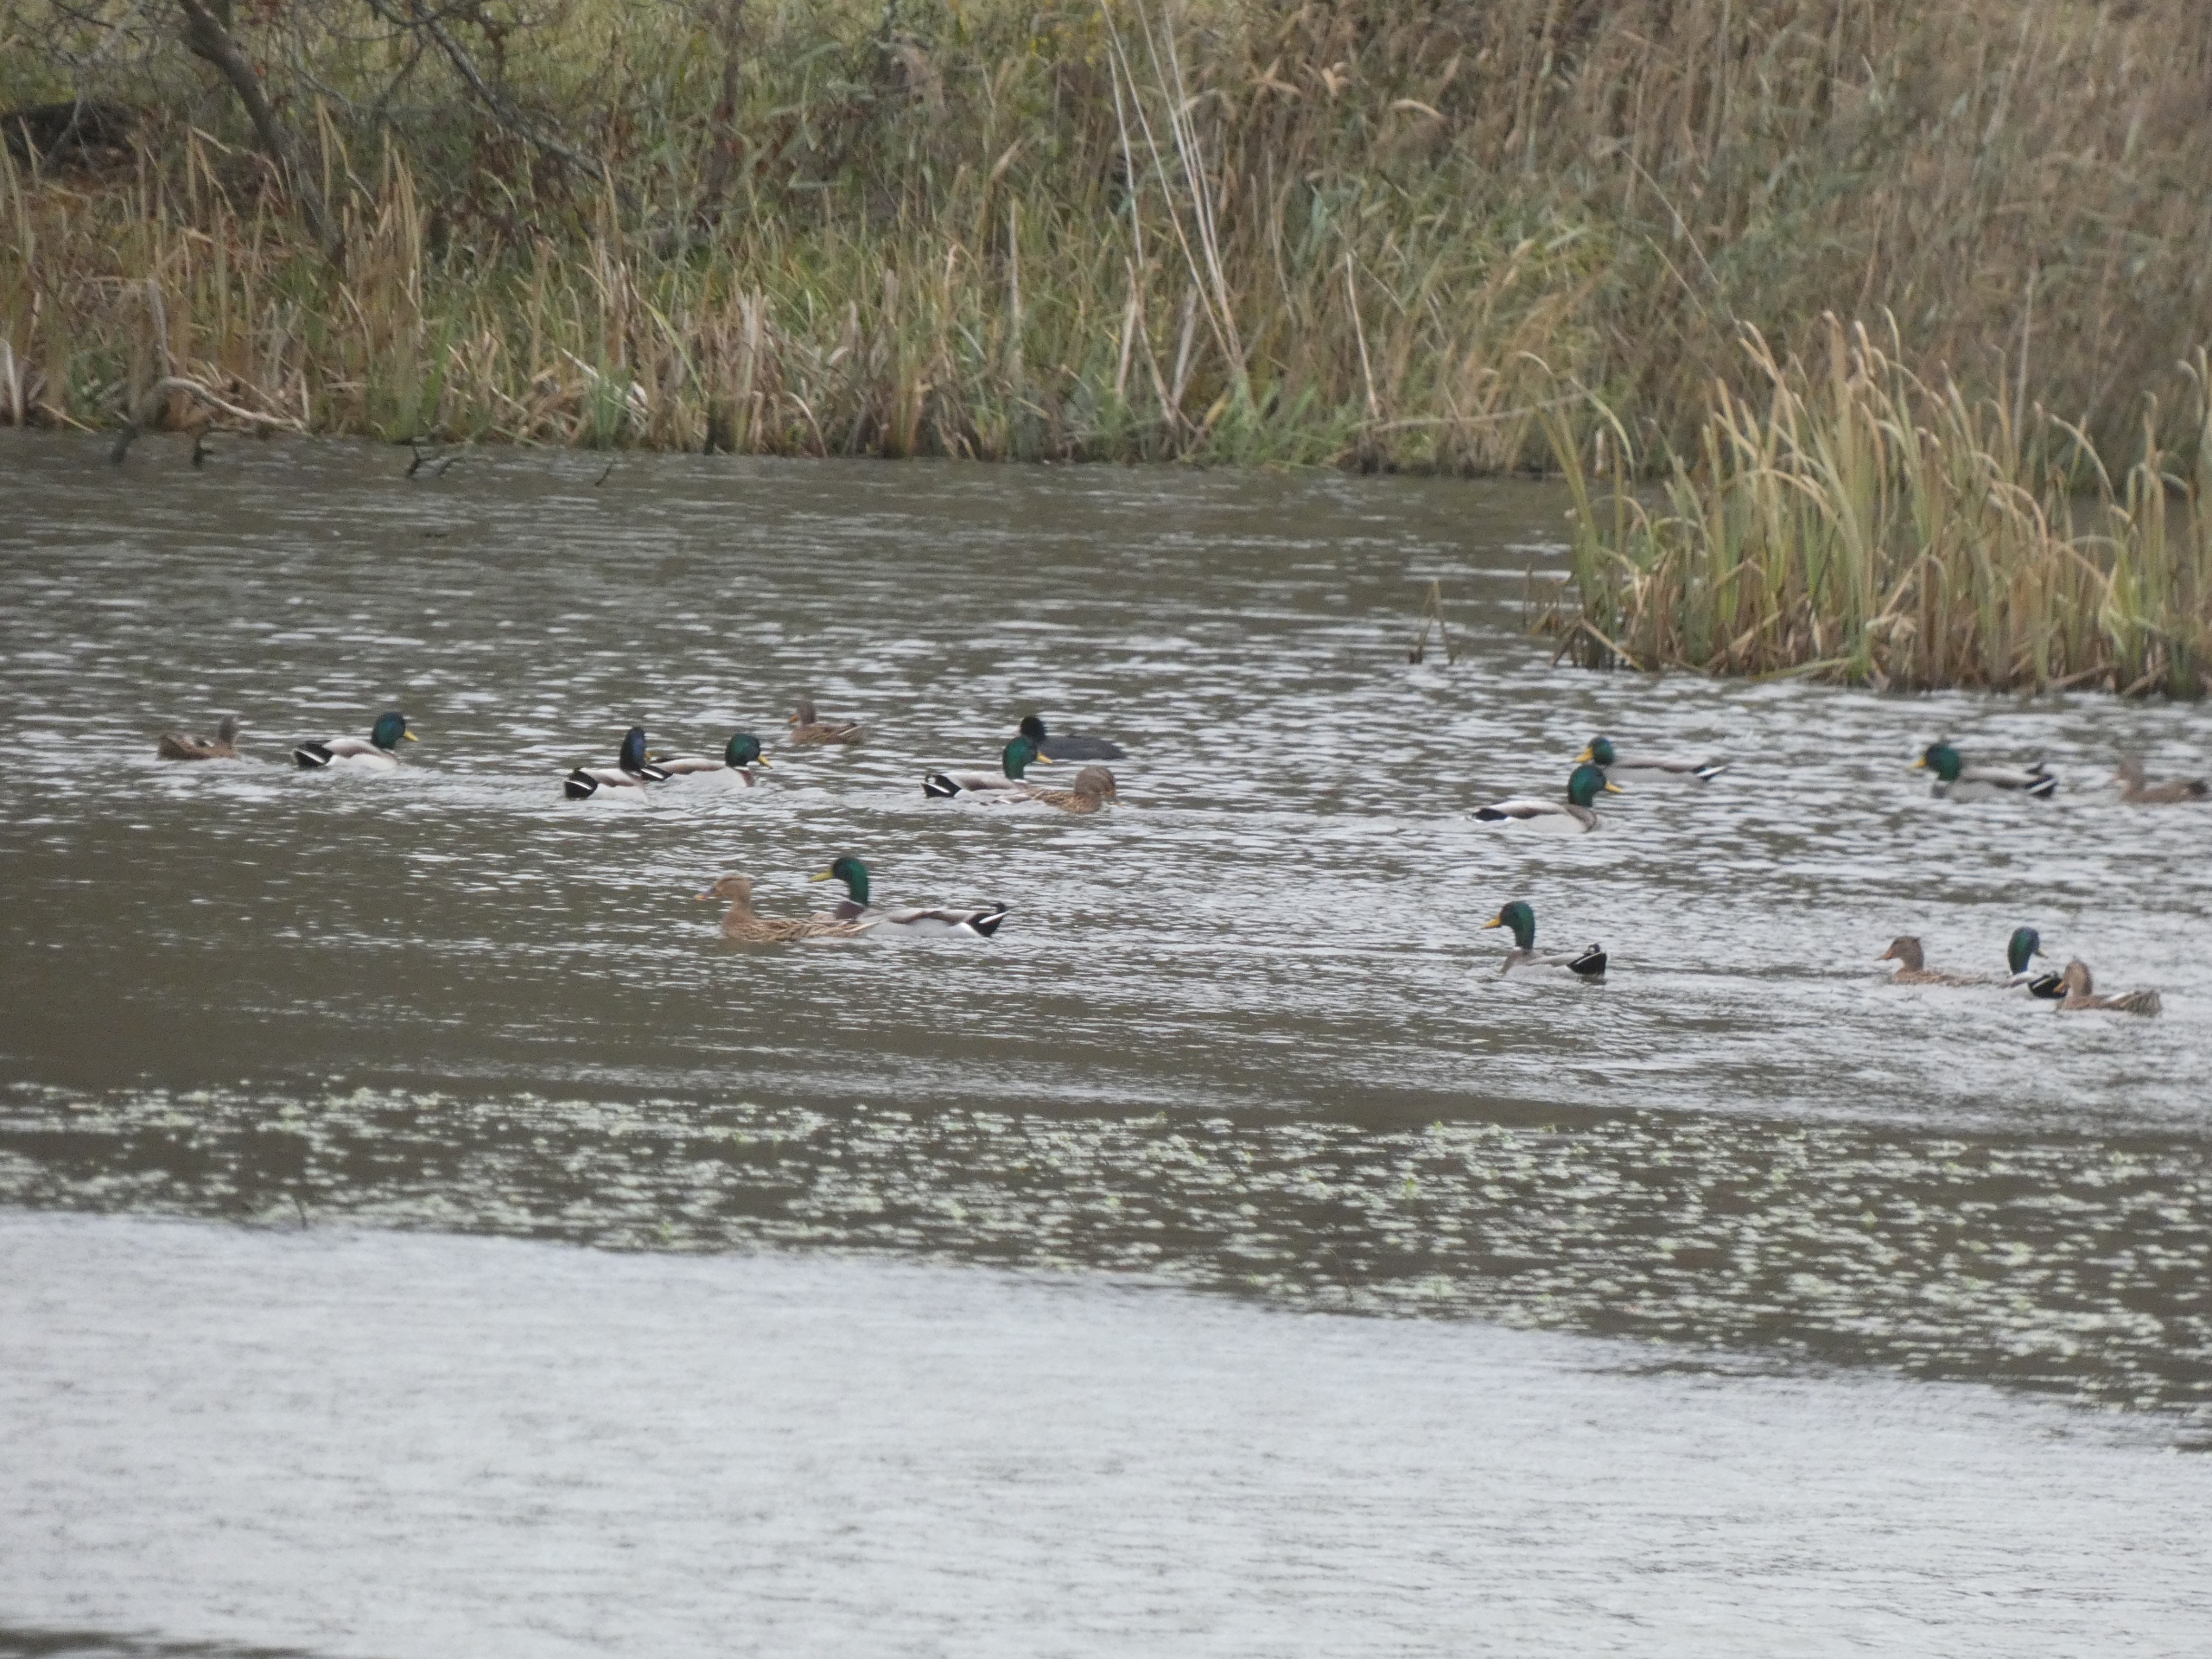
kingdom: Animalia
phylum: Chordata
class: Aves
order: Anseriformes
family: Anatidae
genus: Anas
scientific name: Anas platyrhynchos
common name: Gråand
